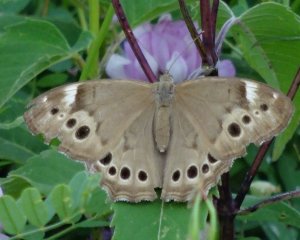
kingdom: Animalia
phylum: Arthropoda
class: Insecta
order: Lepidoptera
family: Nymphalidae
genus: Lethe
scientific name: Lethe anthedon
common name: Northern Pearly-Eye
